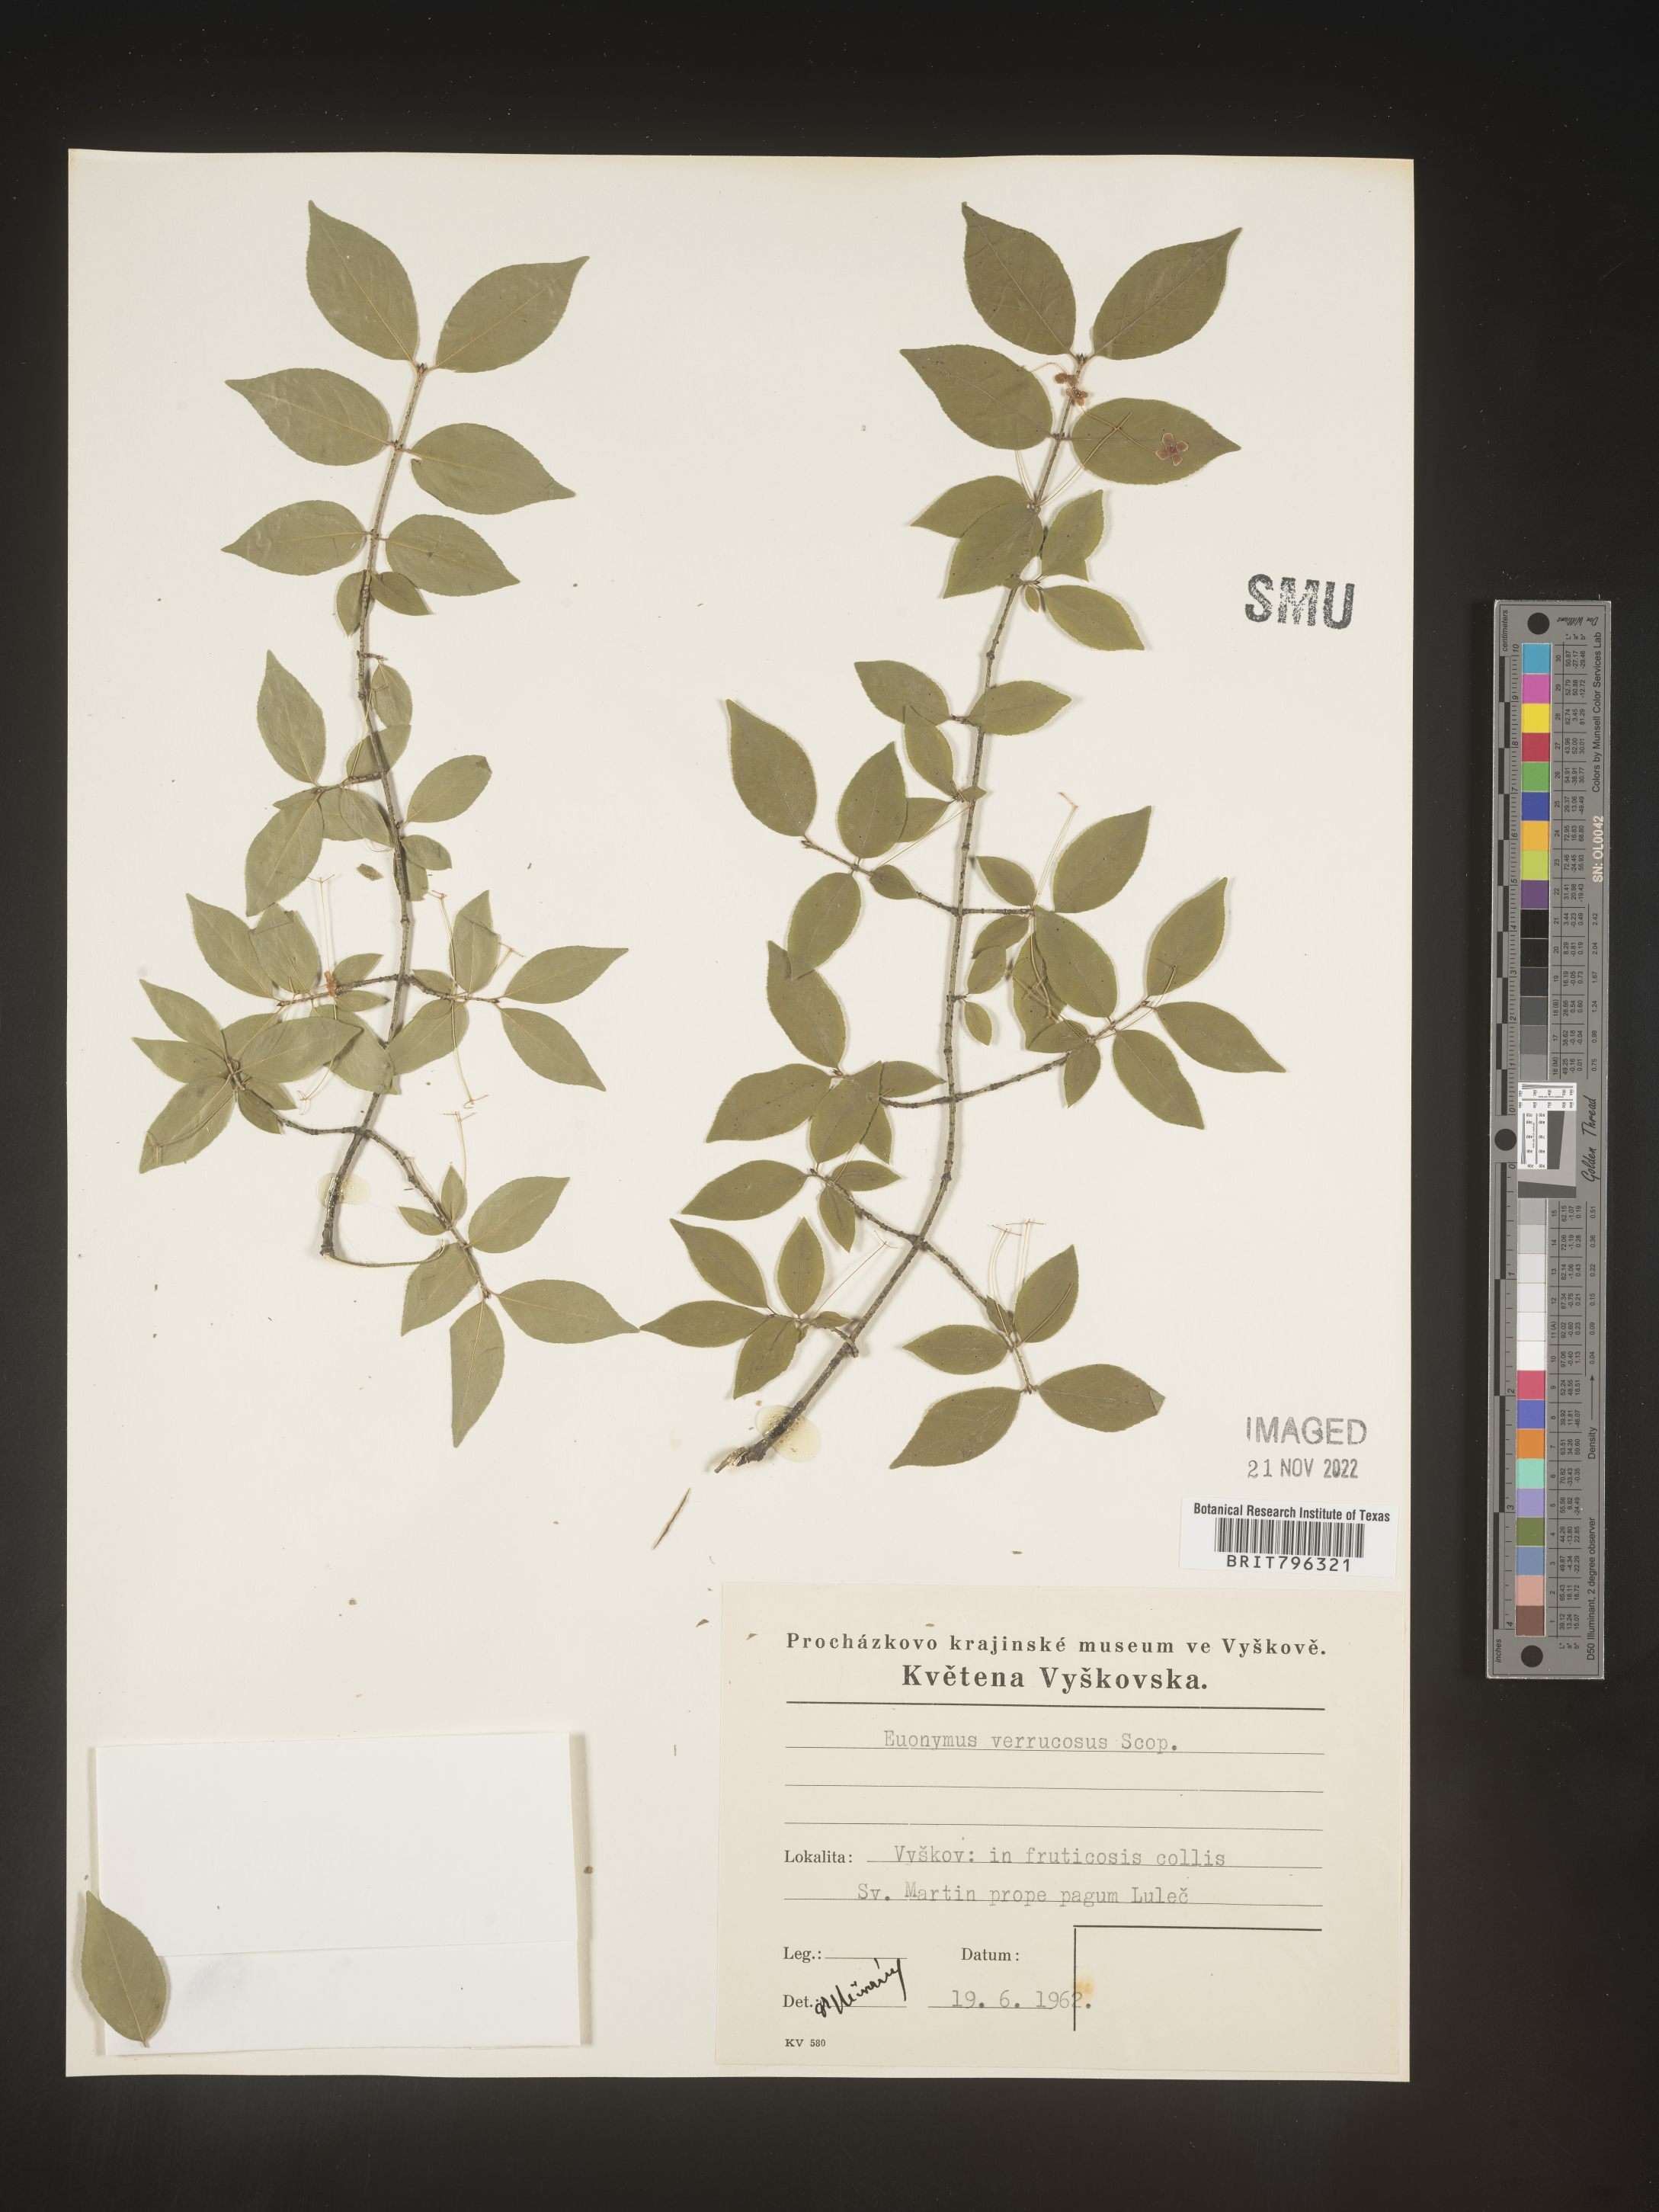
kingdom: Plantae
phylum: Tracheophyta
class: Magnoliopsida
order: Celastrales
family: Celastraceae
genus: Euonymus
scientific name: Euonymus
